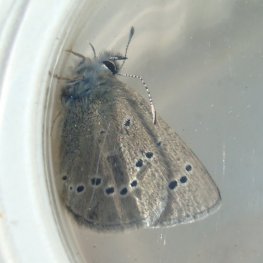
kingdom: Animalia
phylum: Arthropoda
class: Insecta
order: Lepidoptera
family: Lycaenidae
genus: Glaucopsyche
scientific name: Glaucopsyche lygdamus
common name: Silvery Blue
